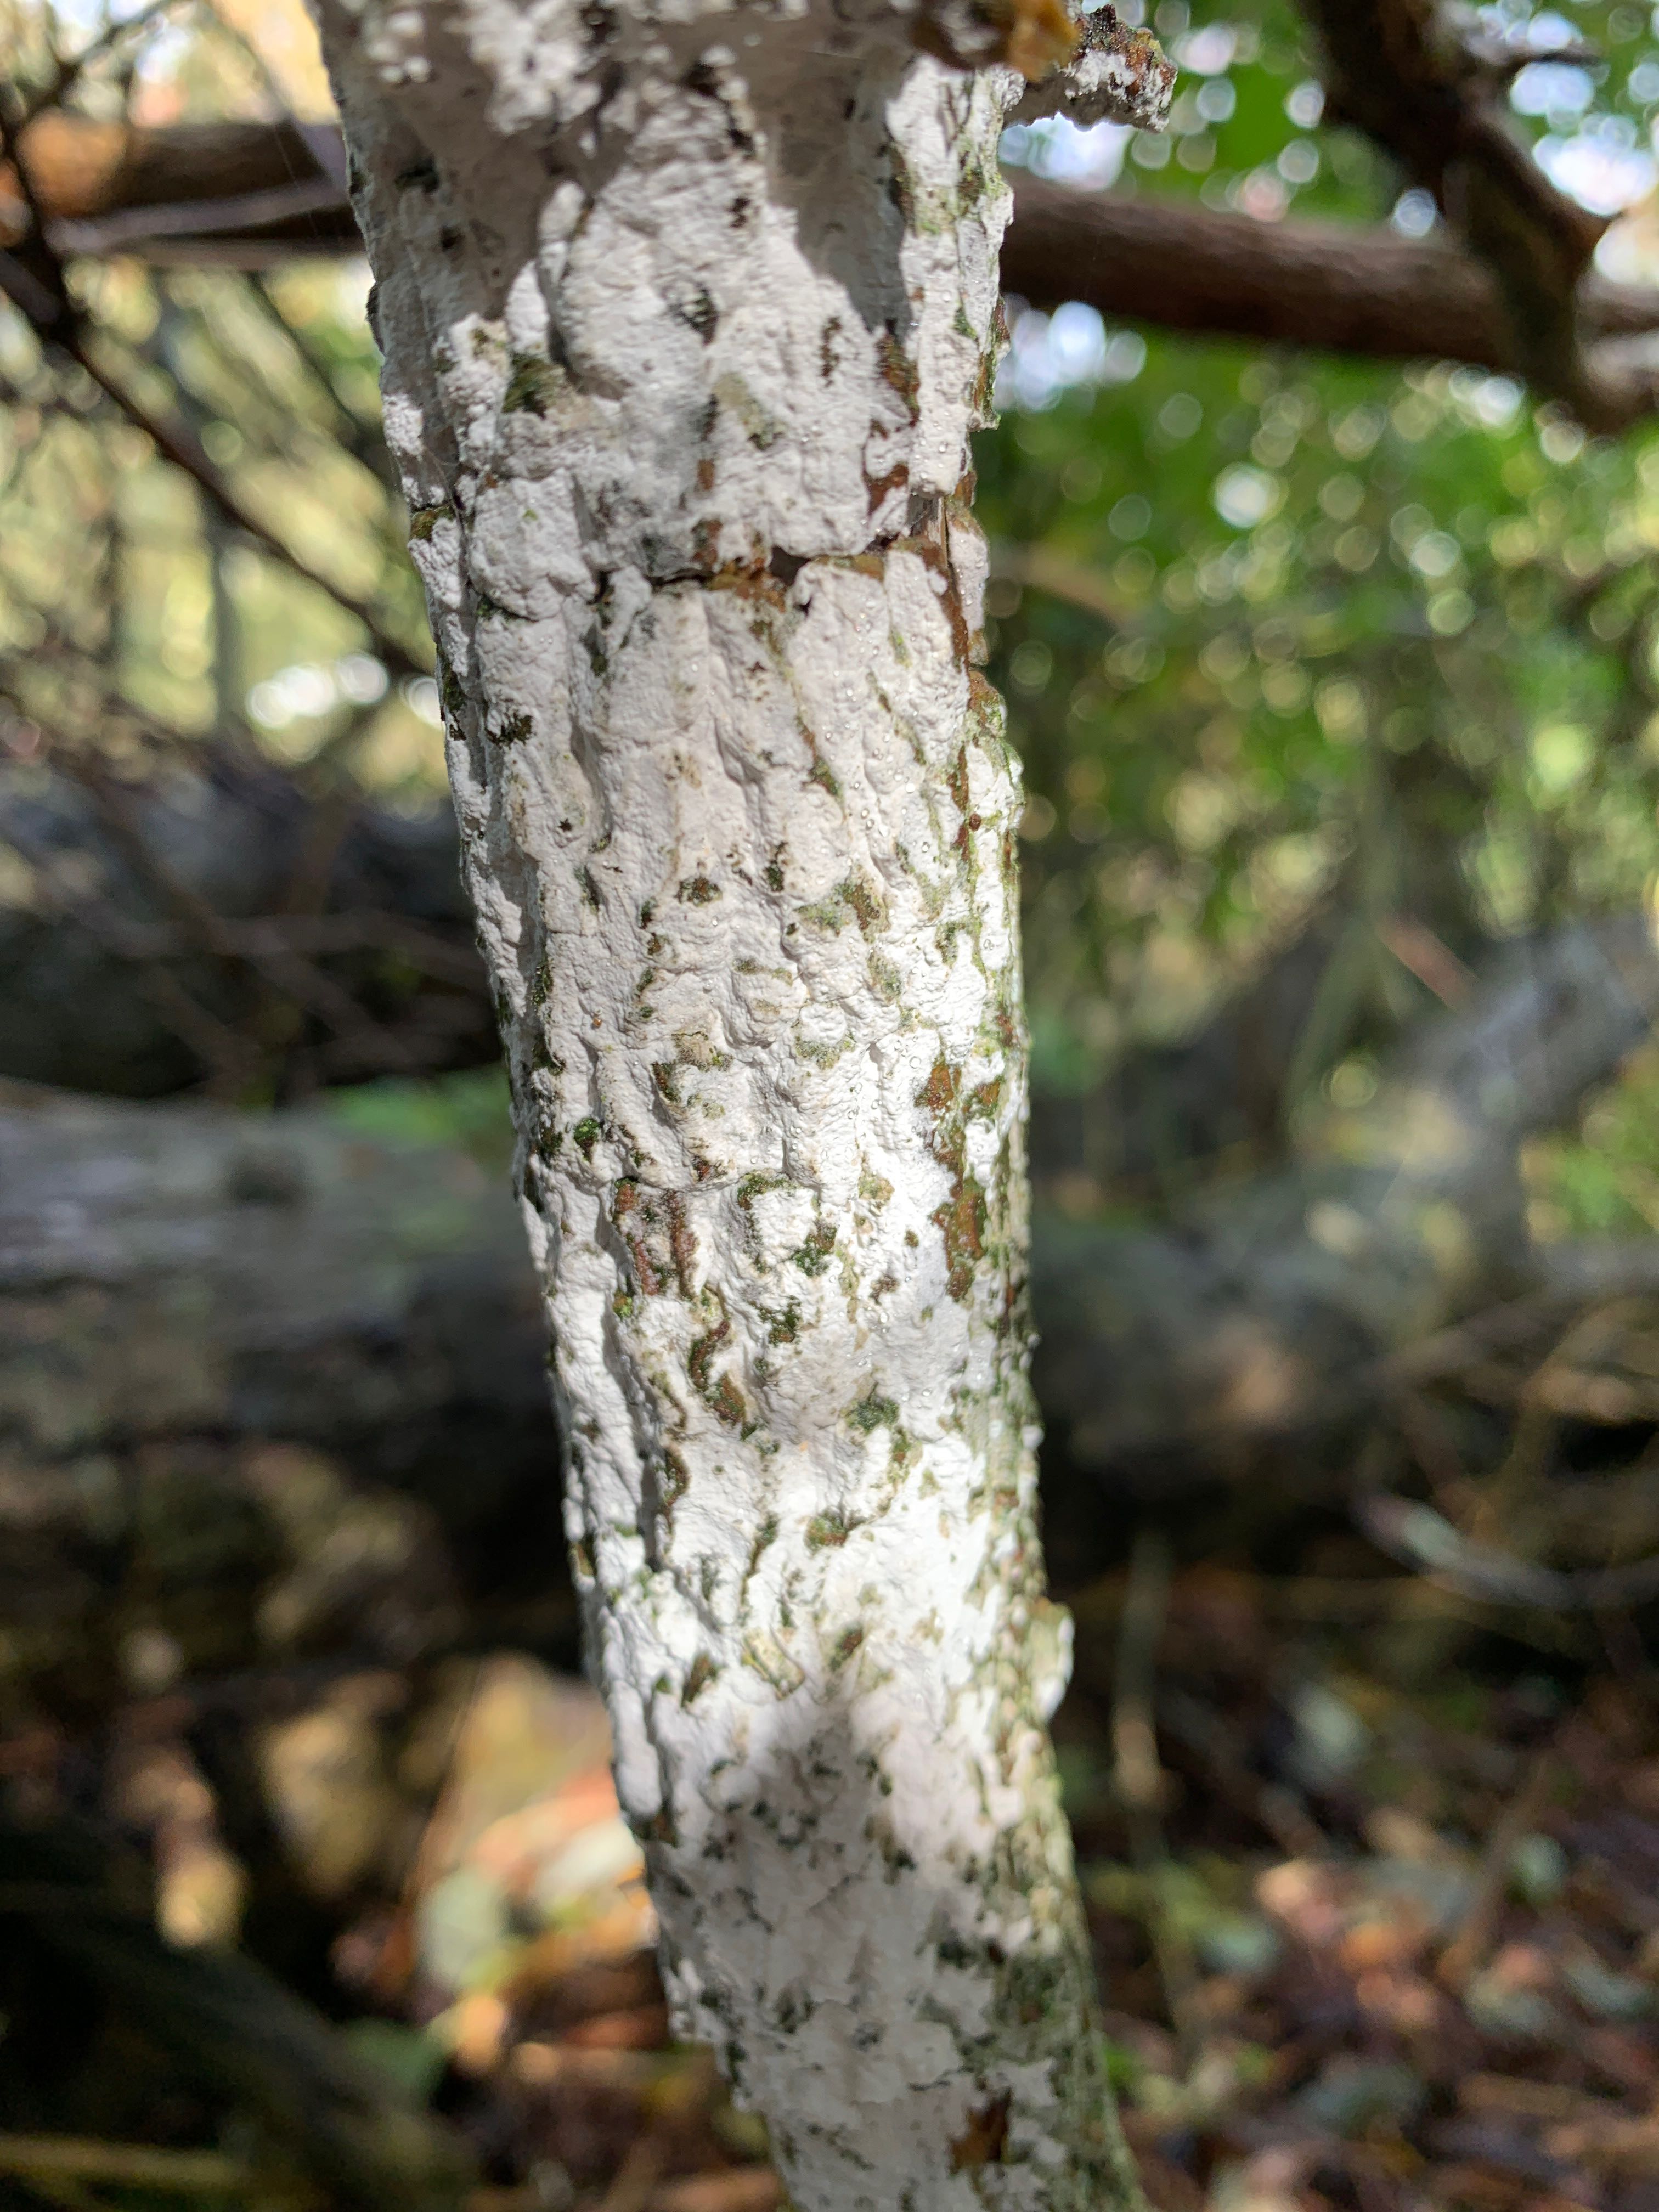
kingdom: Fungi
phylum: Basidiomycota
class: Agaricomycetes
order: Corticiales
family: Corticiaceae
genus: Lyomyces
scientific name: Lyomyces sambuci
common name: almindelig hyldehinde
